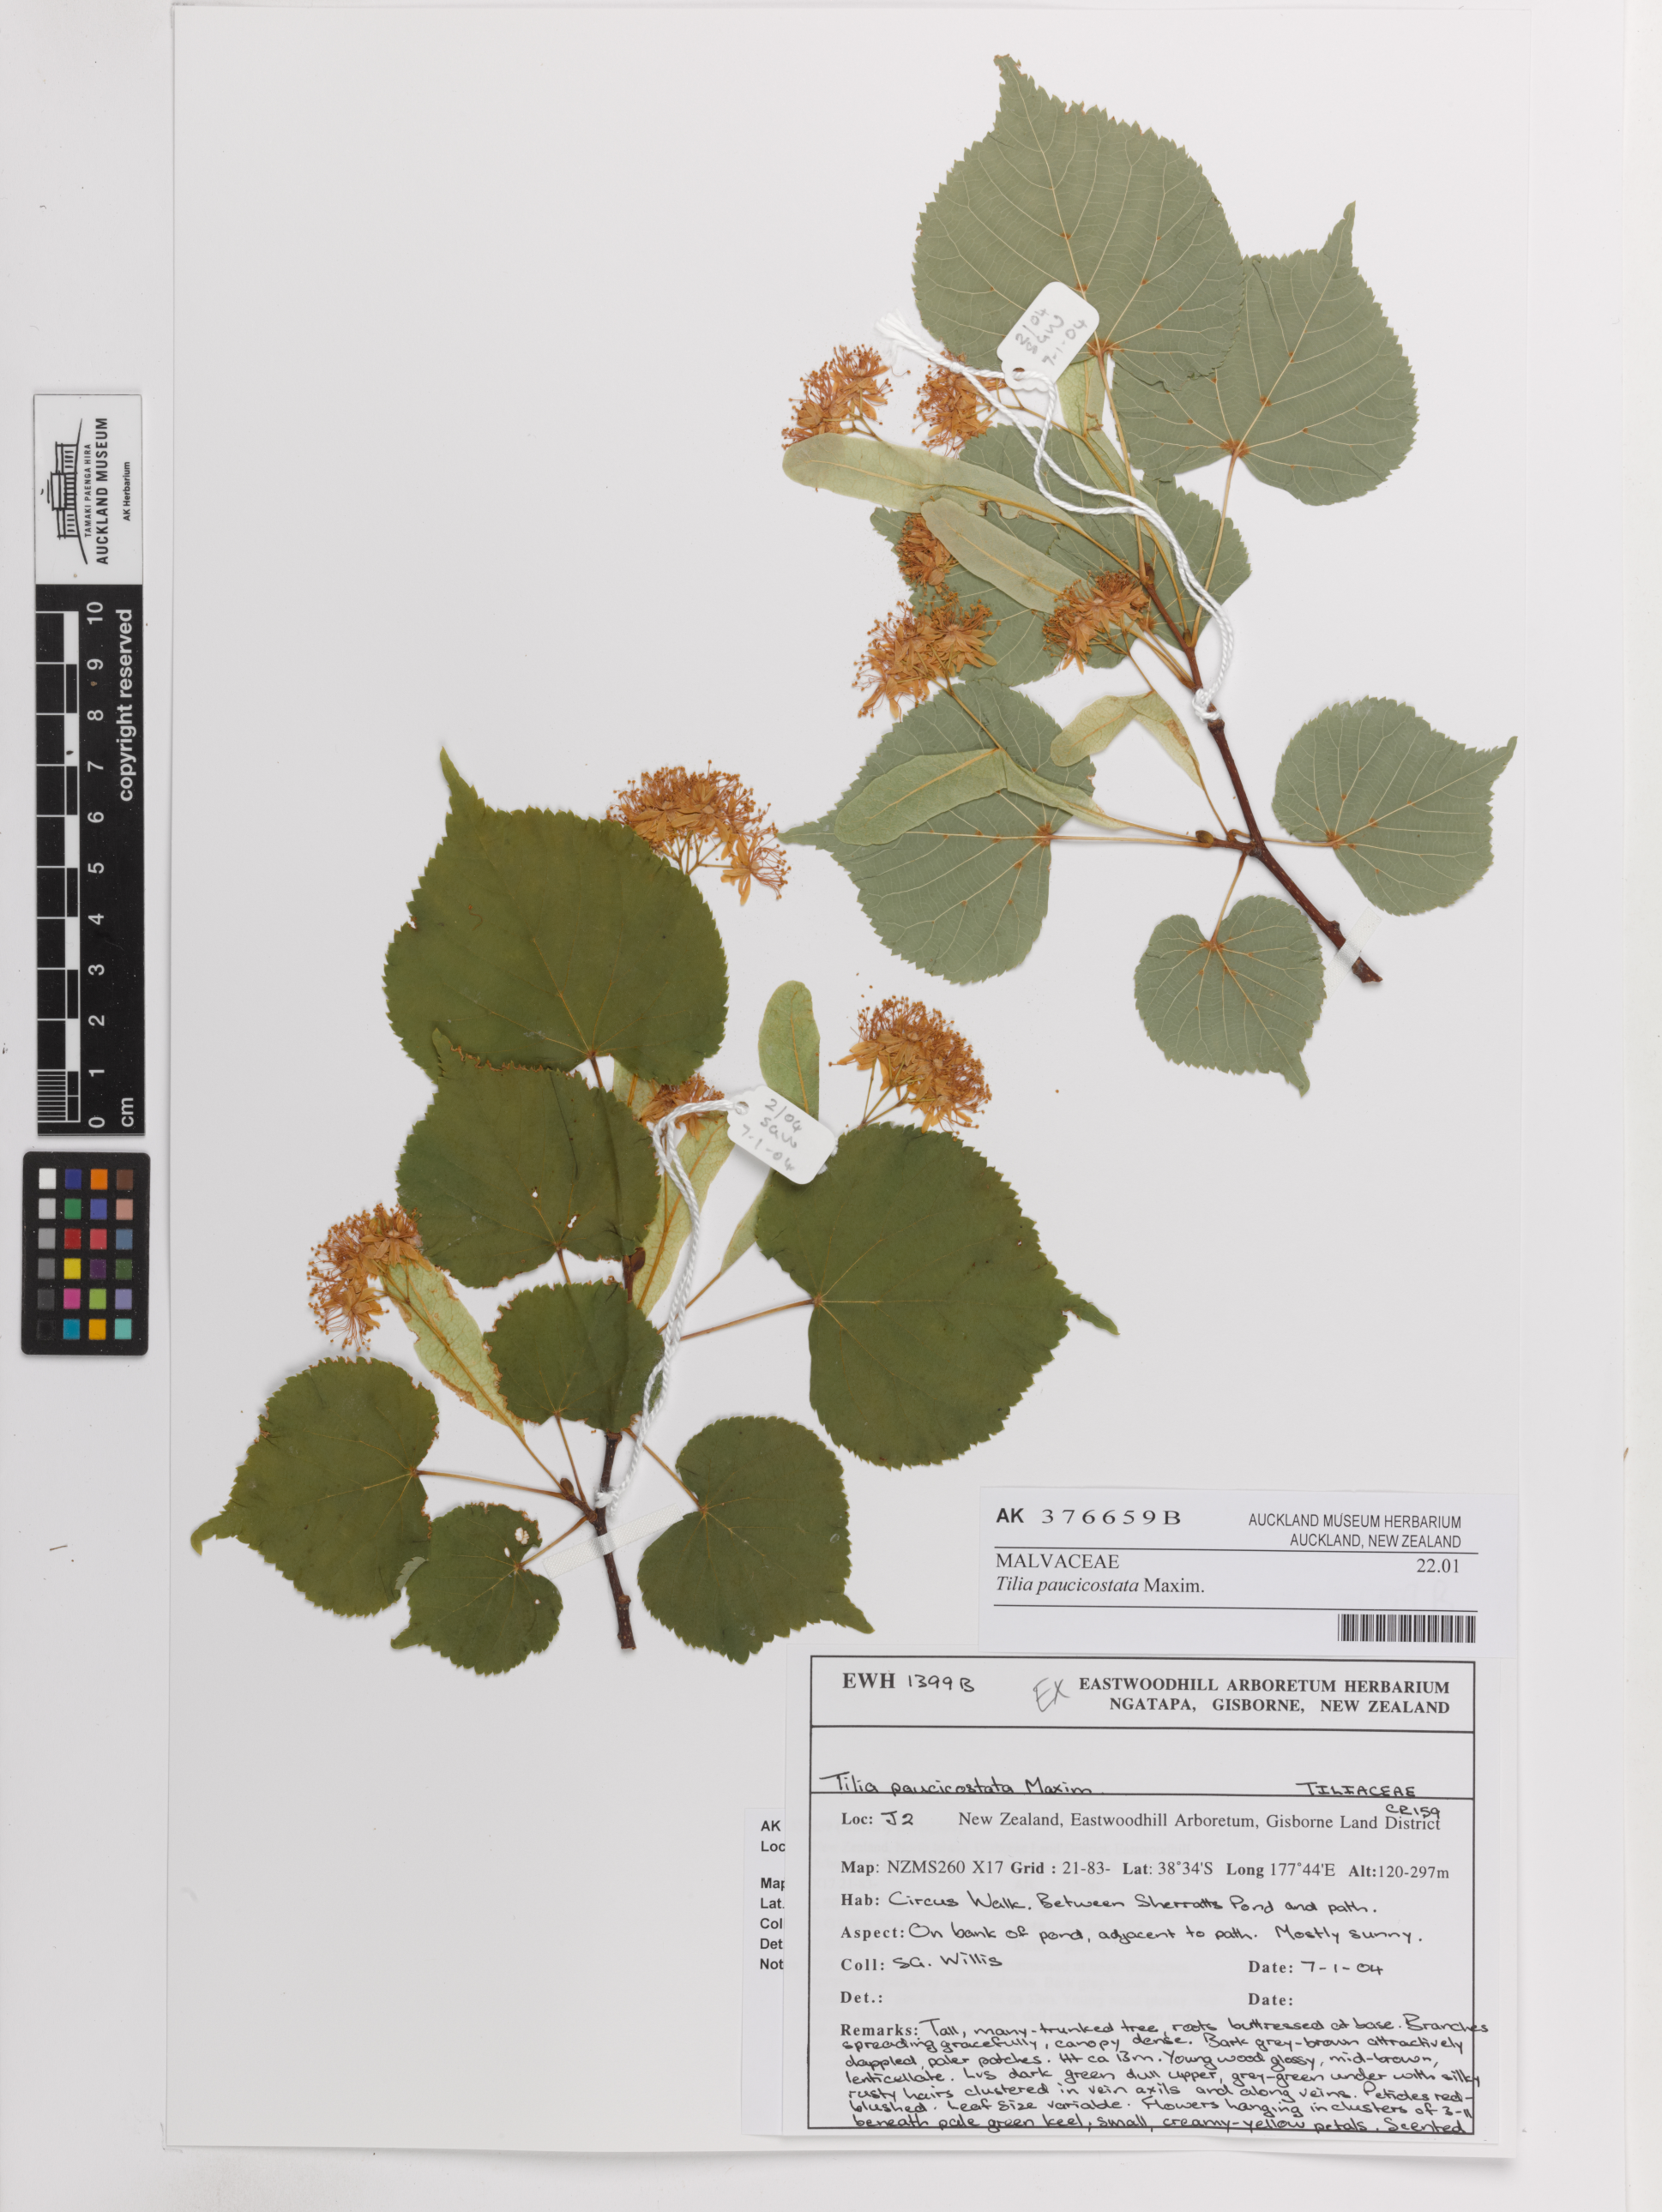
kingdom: Plantae
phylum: Tracheophyta
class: Magnoliopsida
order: Malvales
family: Malvaceae
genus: Tilia
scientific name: Tilia paucicostata
